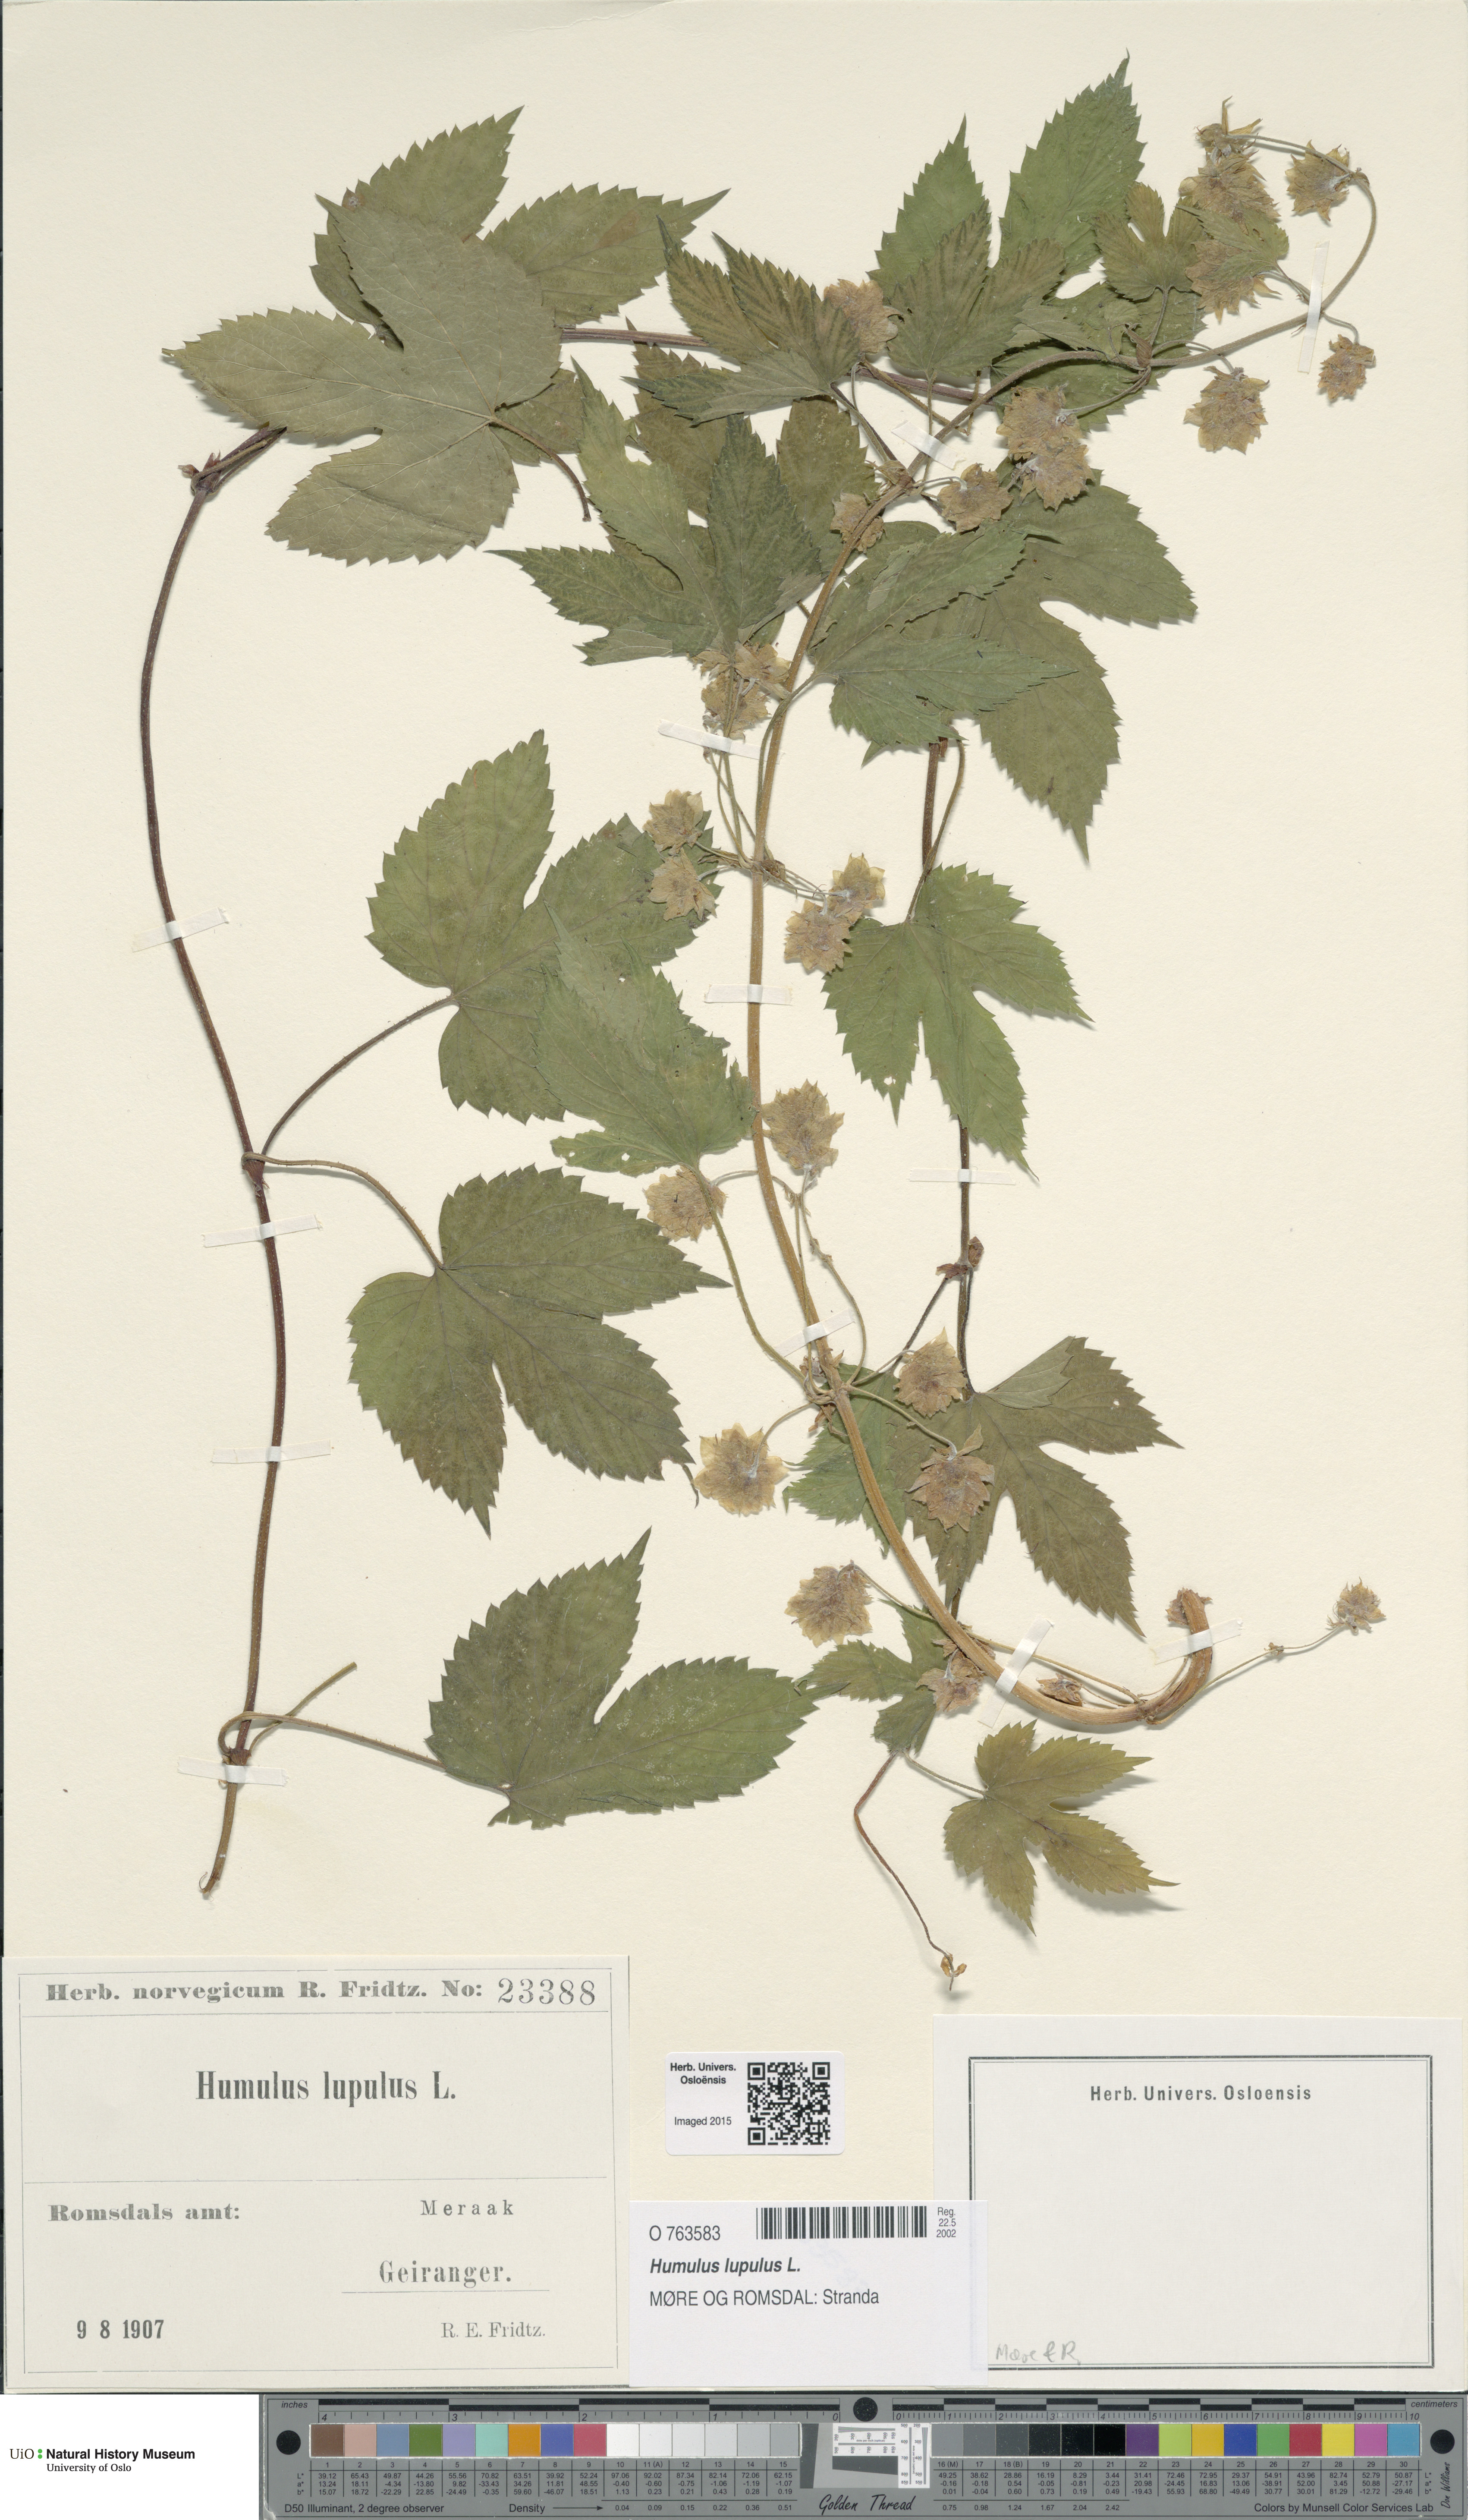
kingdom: Plantae
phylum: Tracheophyta
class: Magnoliopsida
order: Rosales
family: Cannabaceae
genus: Humulus
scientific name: Humulus lupulus
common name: Hop
